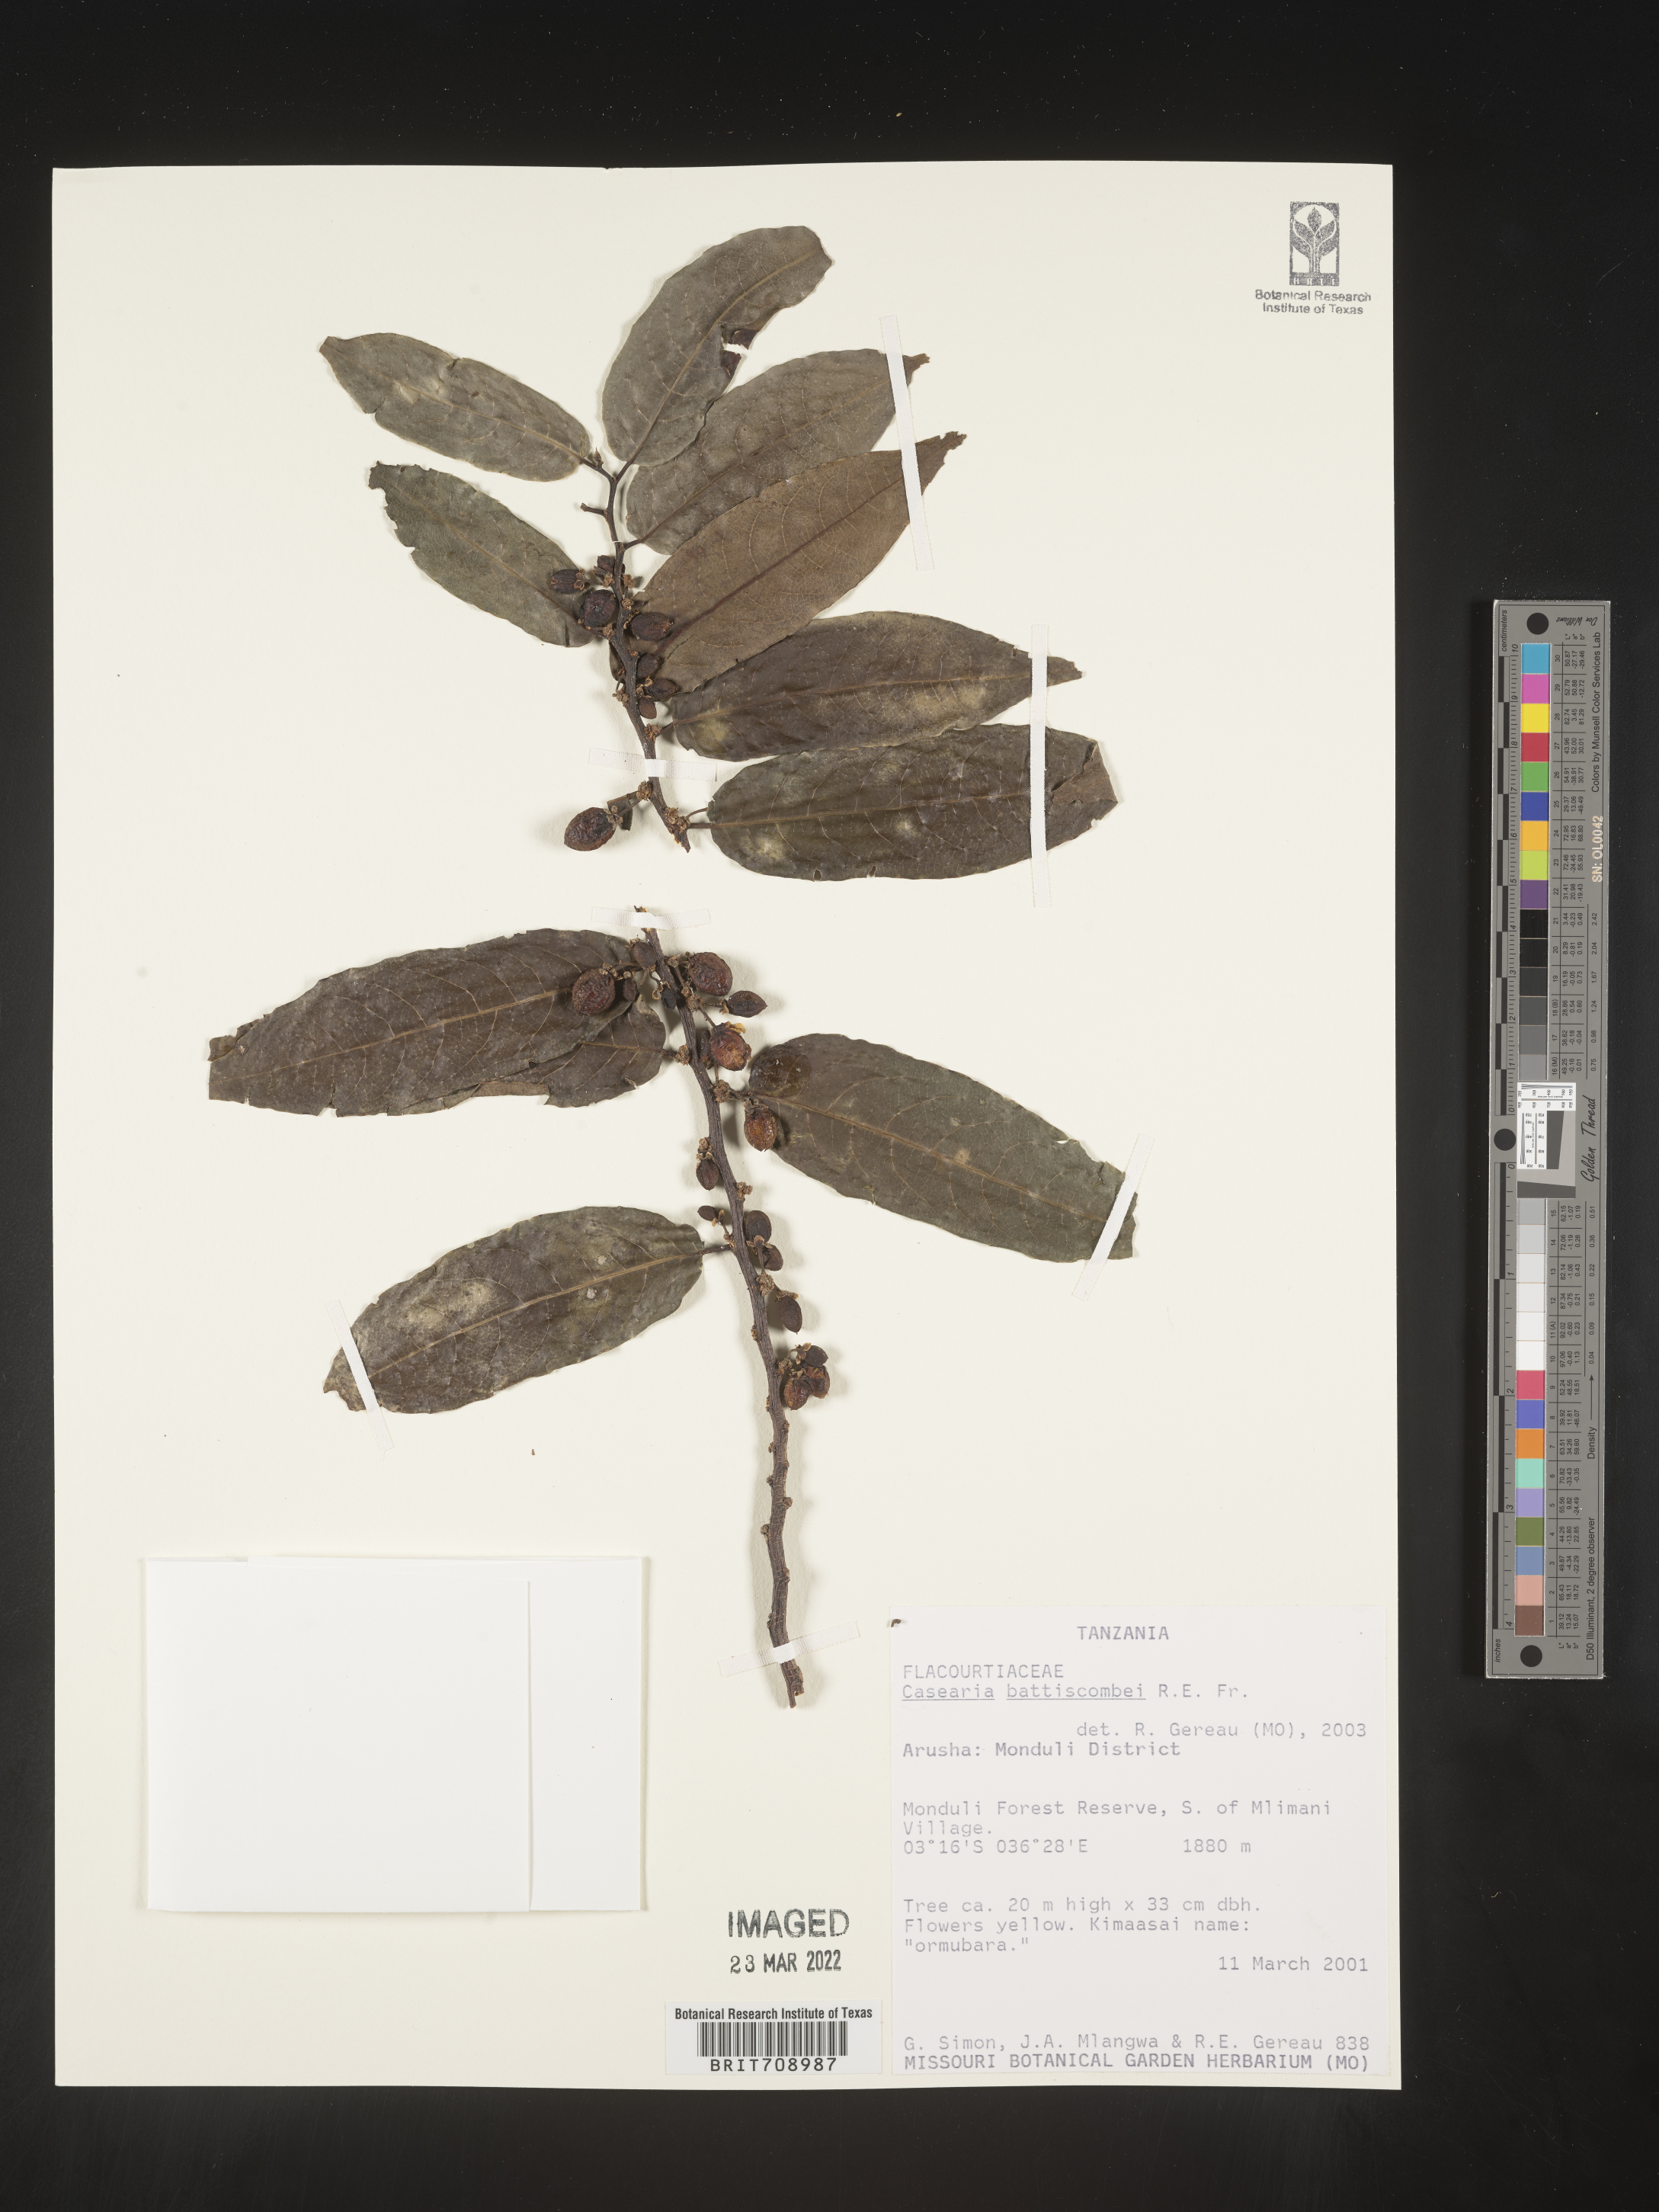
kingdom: Plantae
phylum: Tracheophyta
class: Magnoliopsida
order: Malpighiales
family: Salicaceae
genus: Casearia
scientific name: Casearia
